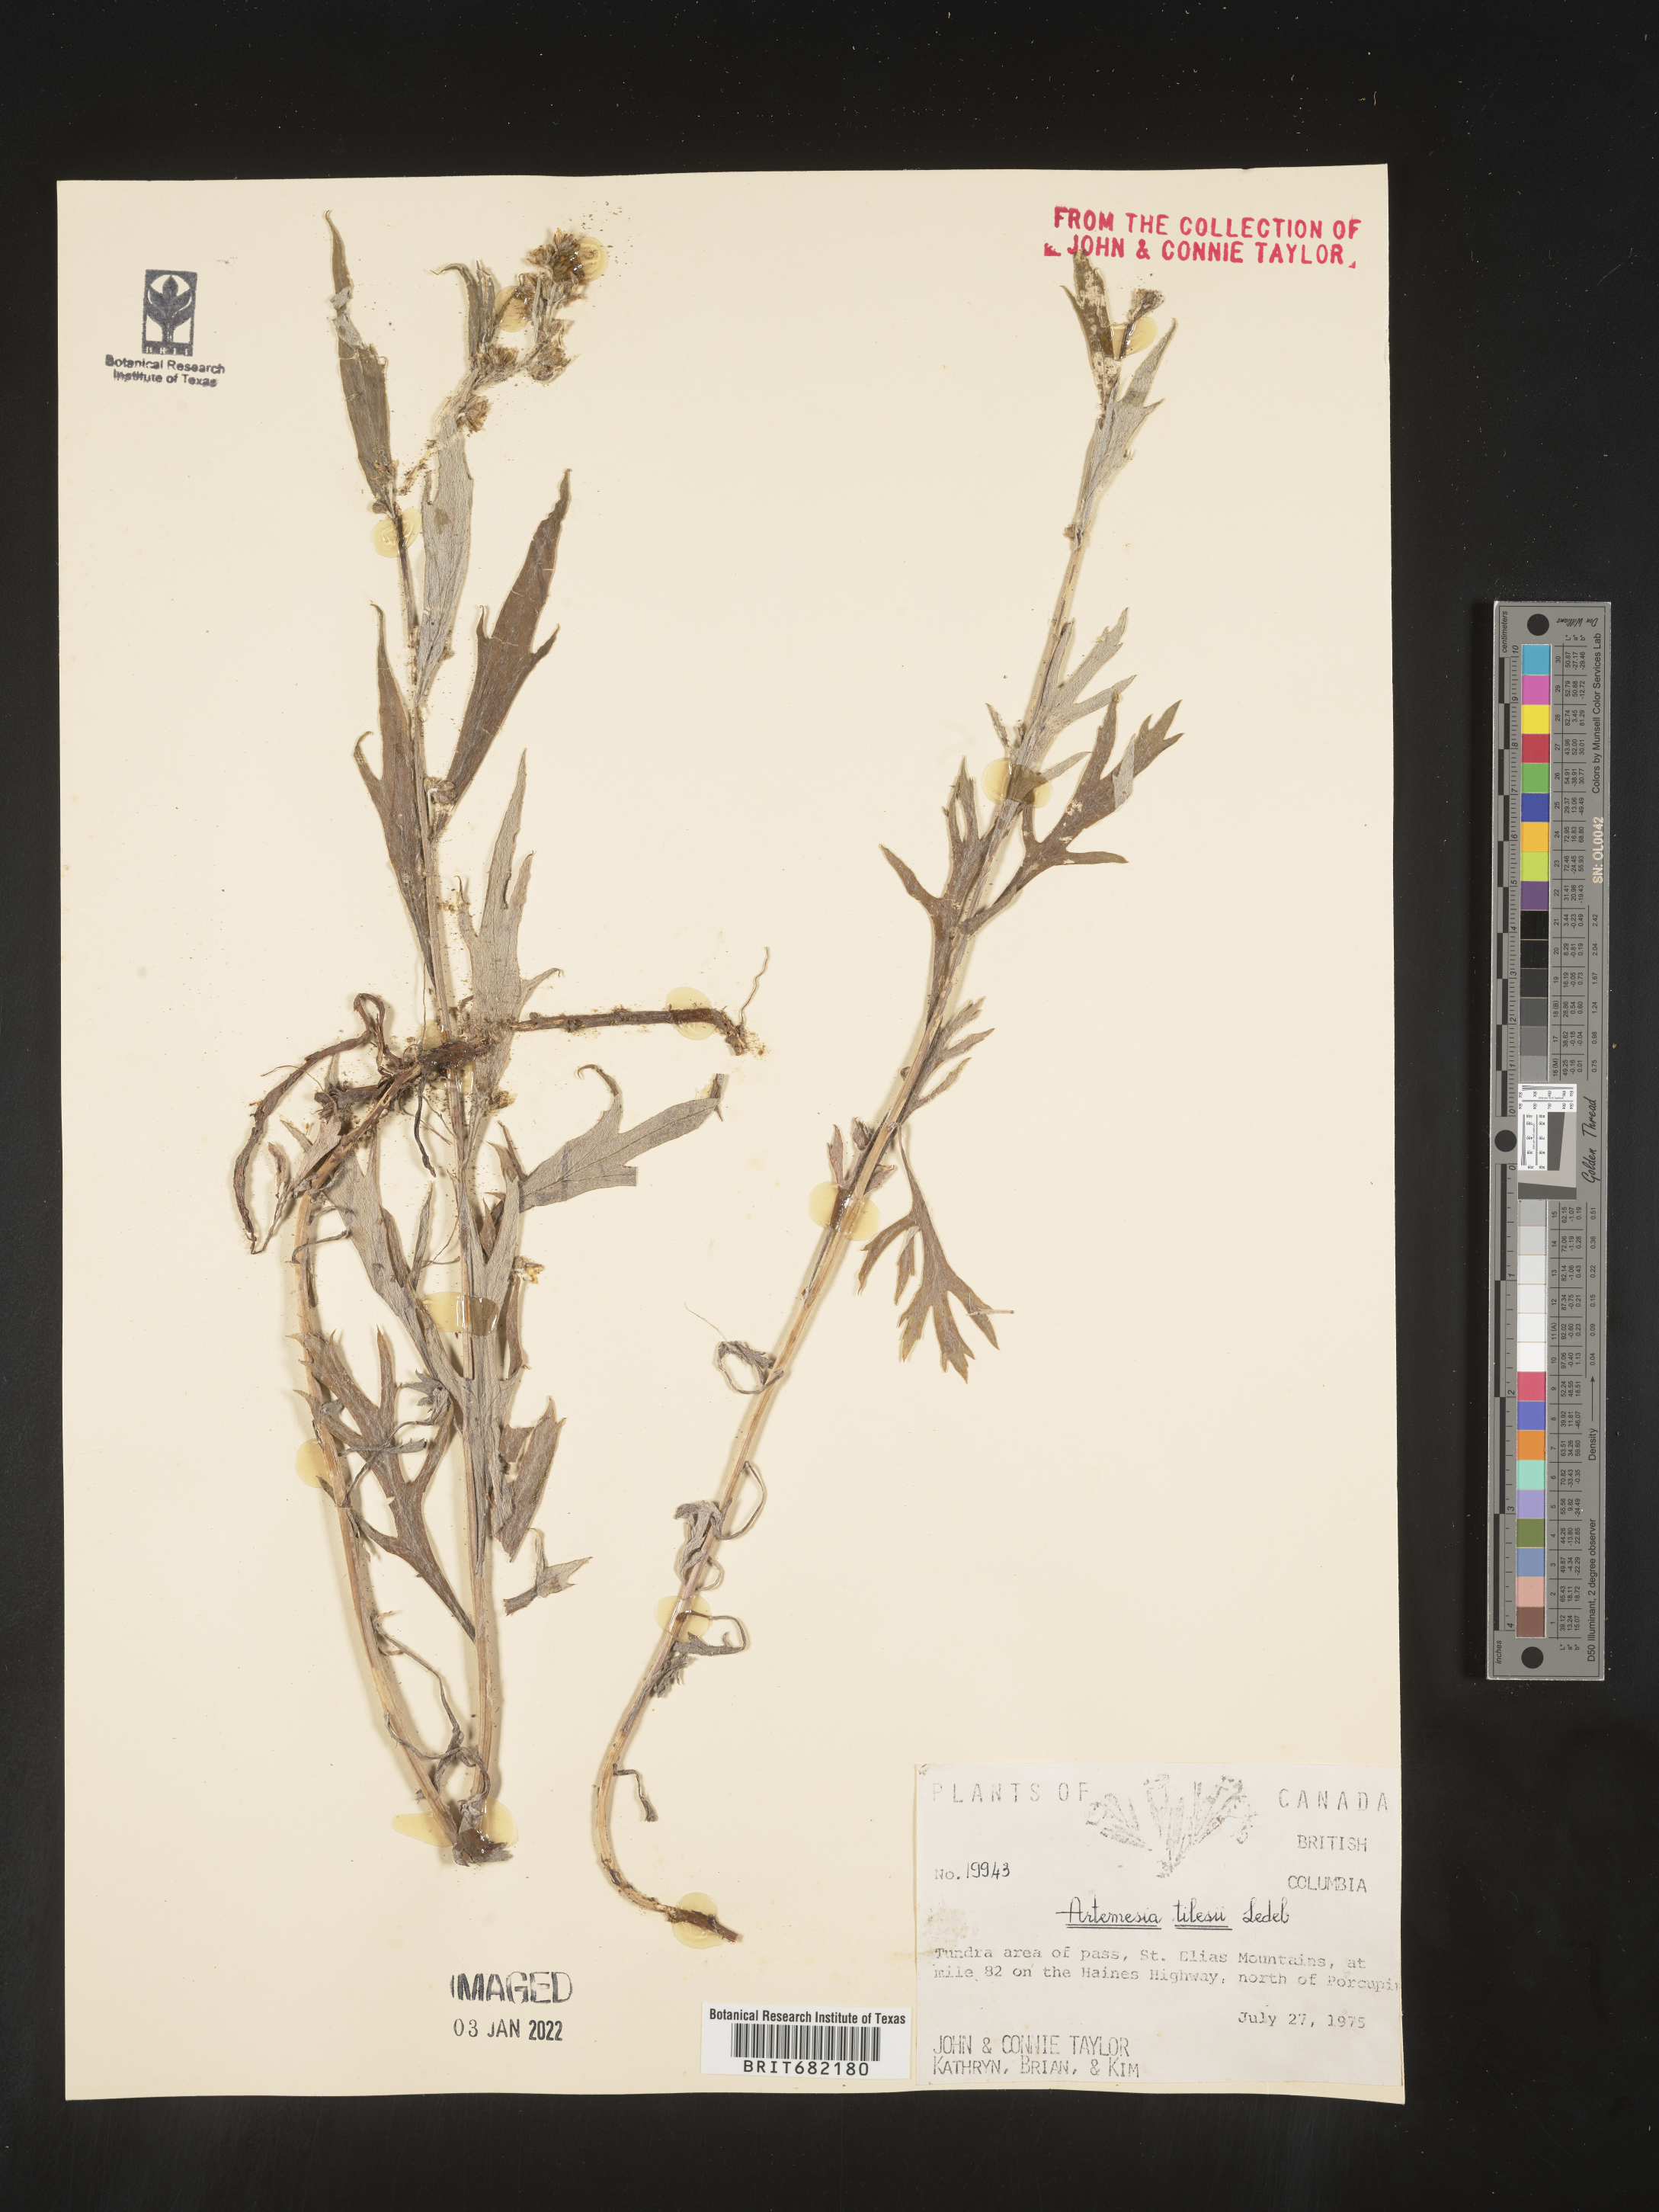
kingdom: Plantae
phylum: Tracheophyta
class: Magnoliopsida
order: Asterales
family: Asteraceae
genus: Artemisia
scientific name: Artemisia tilesii
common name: Aleutian mugwort
